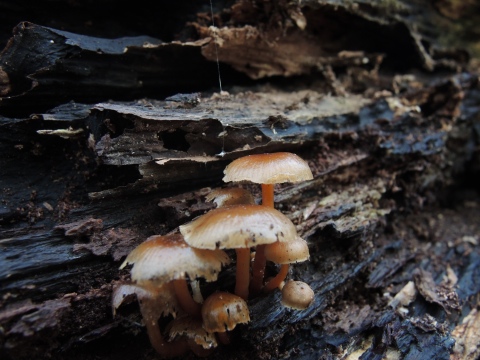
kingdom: Fungi
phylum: Basidiomycota
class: Agaricomycetes
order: Agaricales
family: Mycenaceae
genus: Mycena
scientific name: Mycena tintinnabulum
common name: vinter-huesvamp
